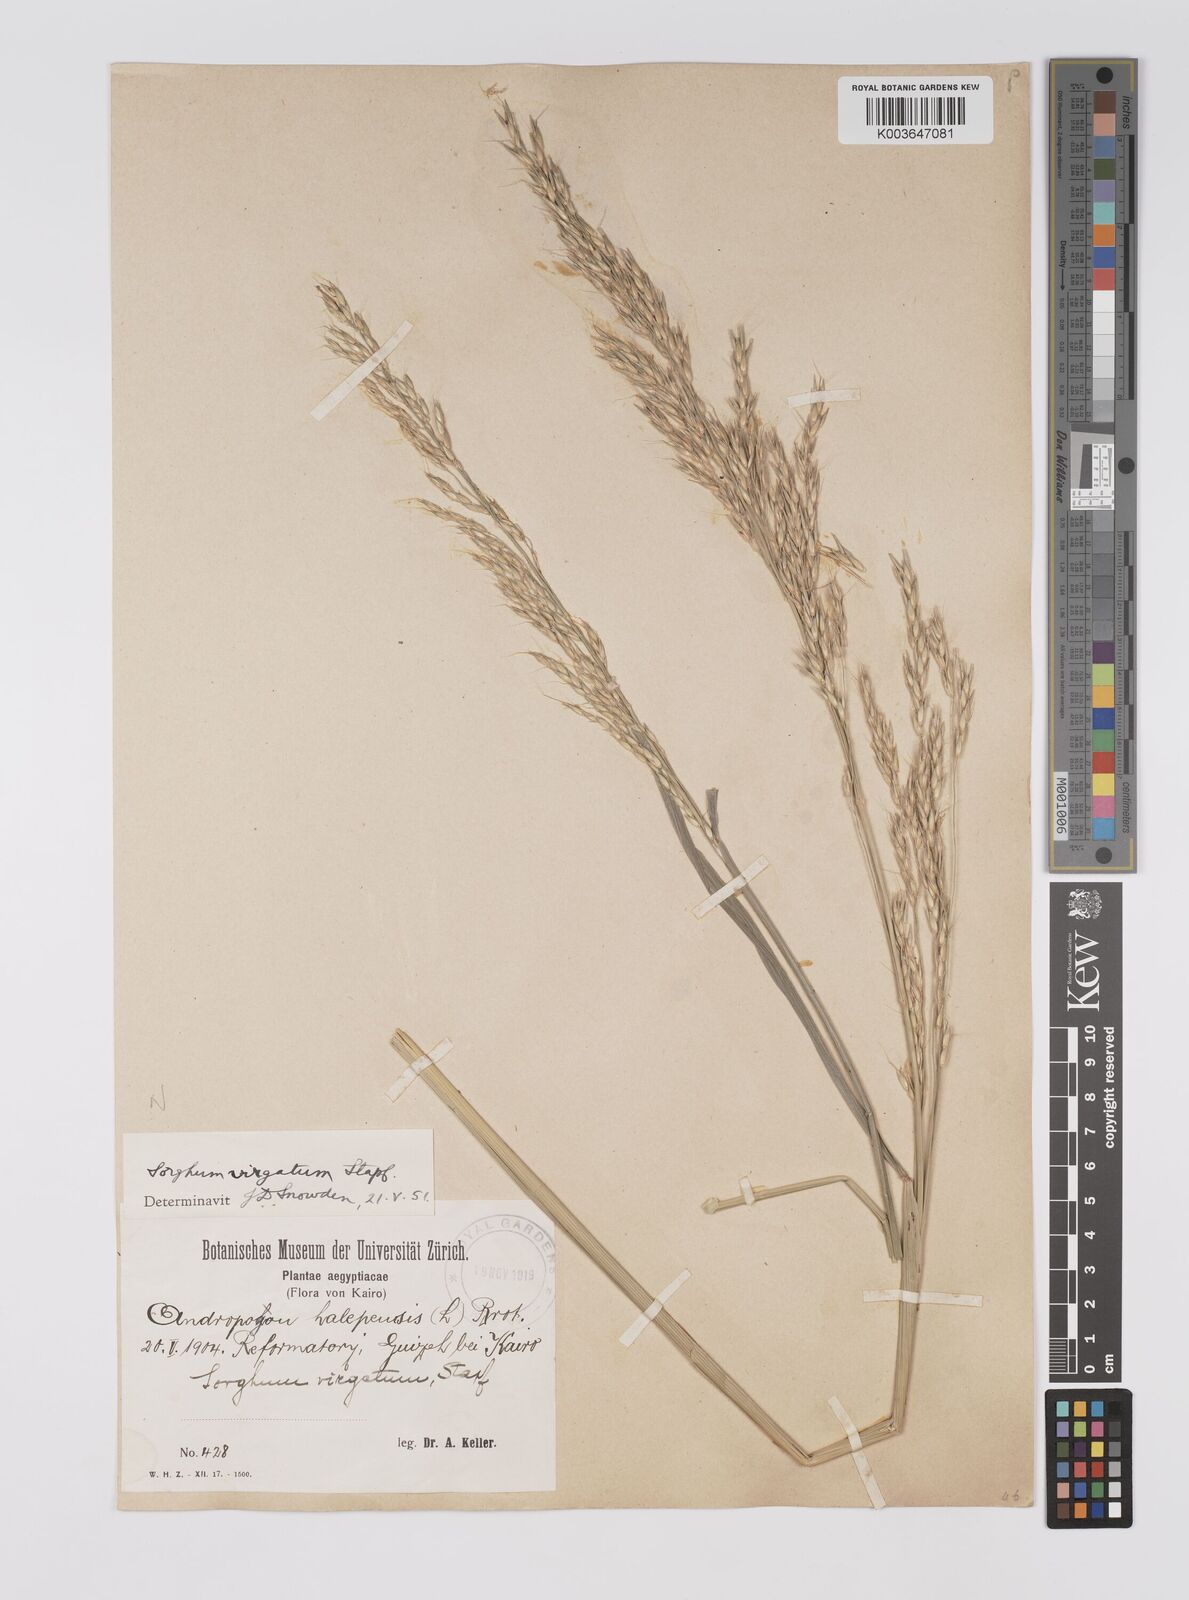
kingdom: Plantae
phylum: Tracheophyta
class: Liliopsida
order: Poales
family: Poaceae
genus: Sorghum
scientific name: Sorghum virgatum
